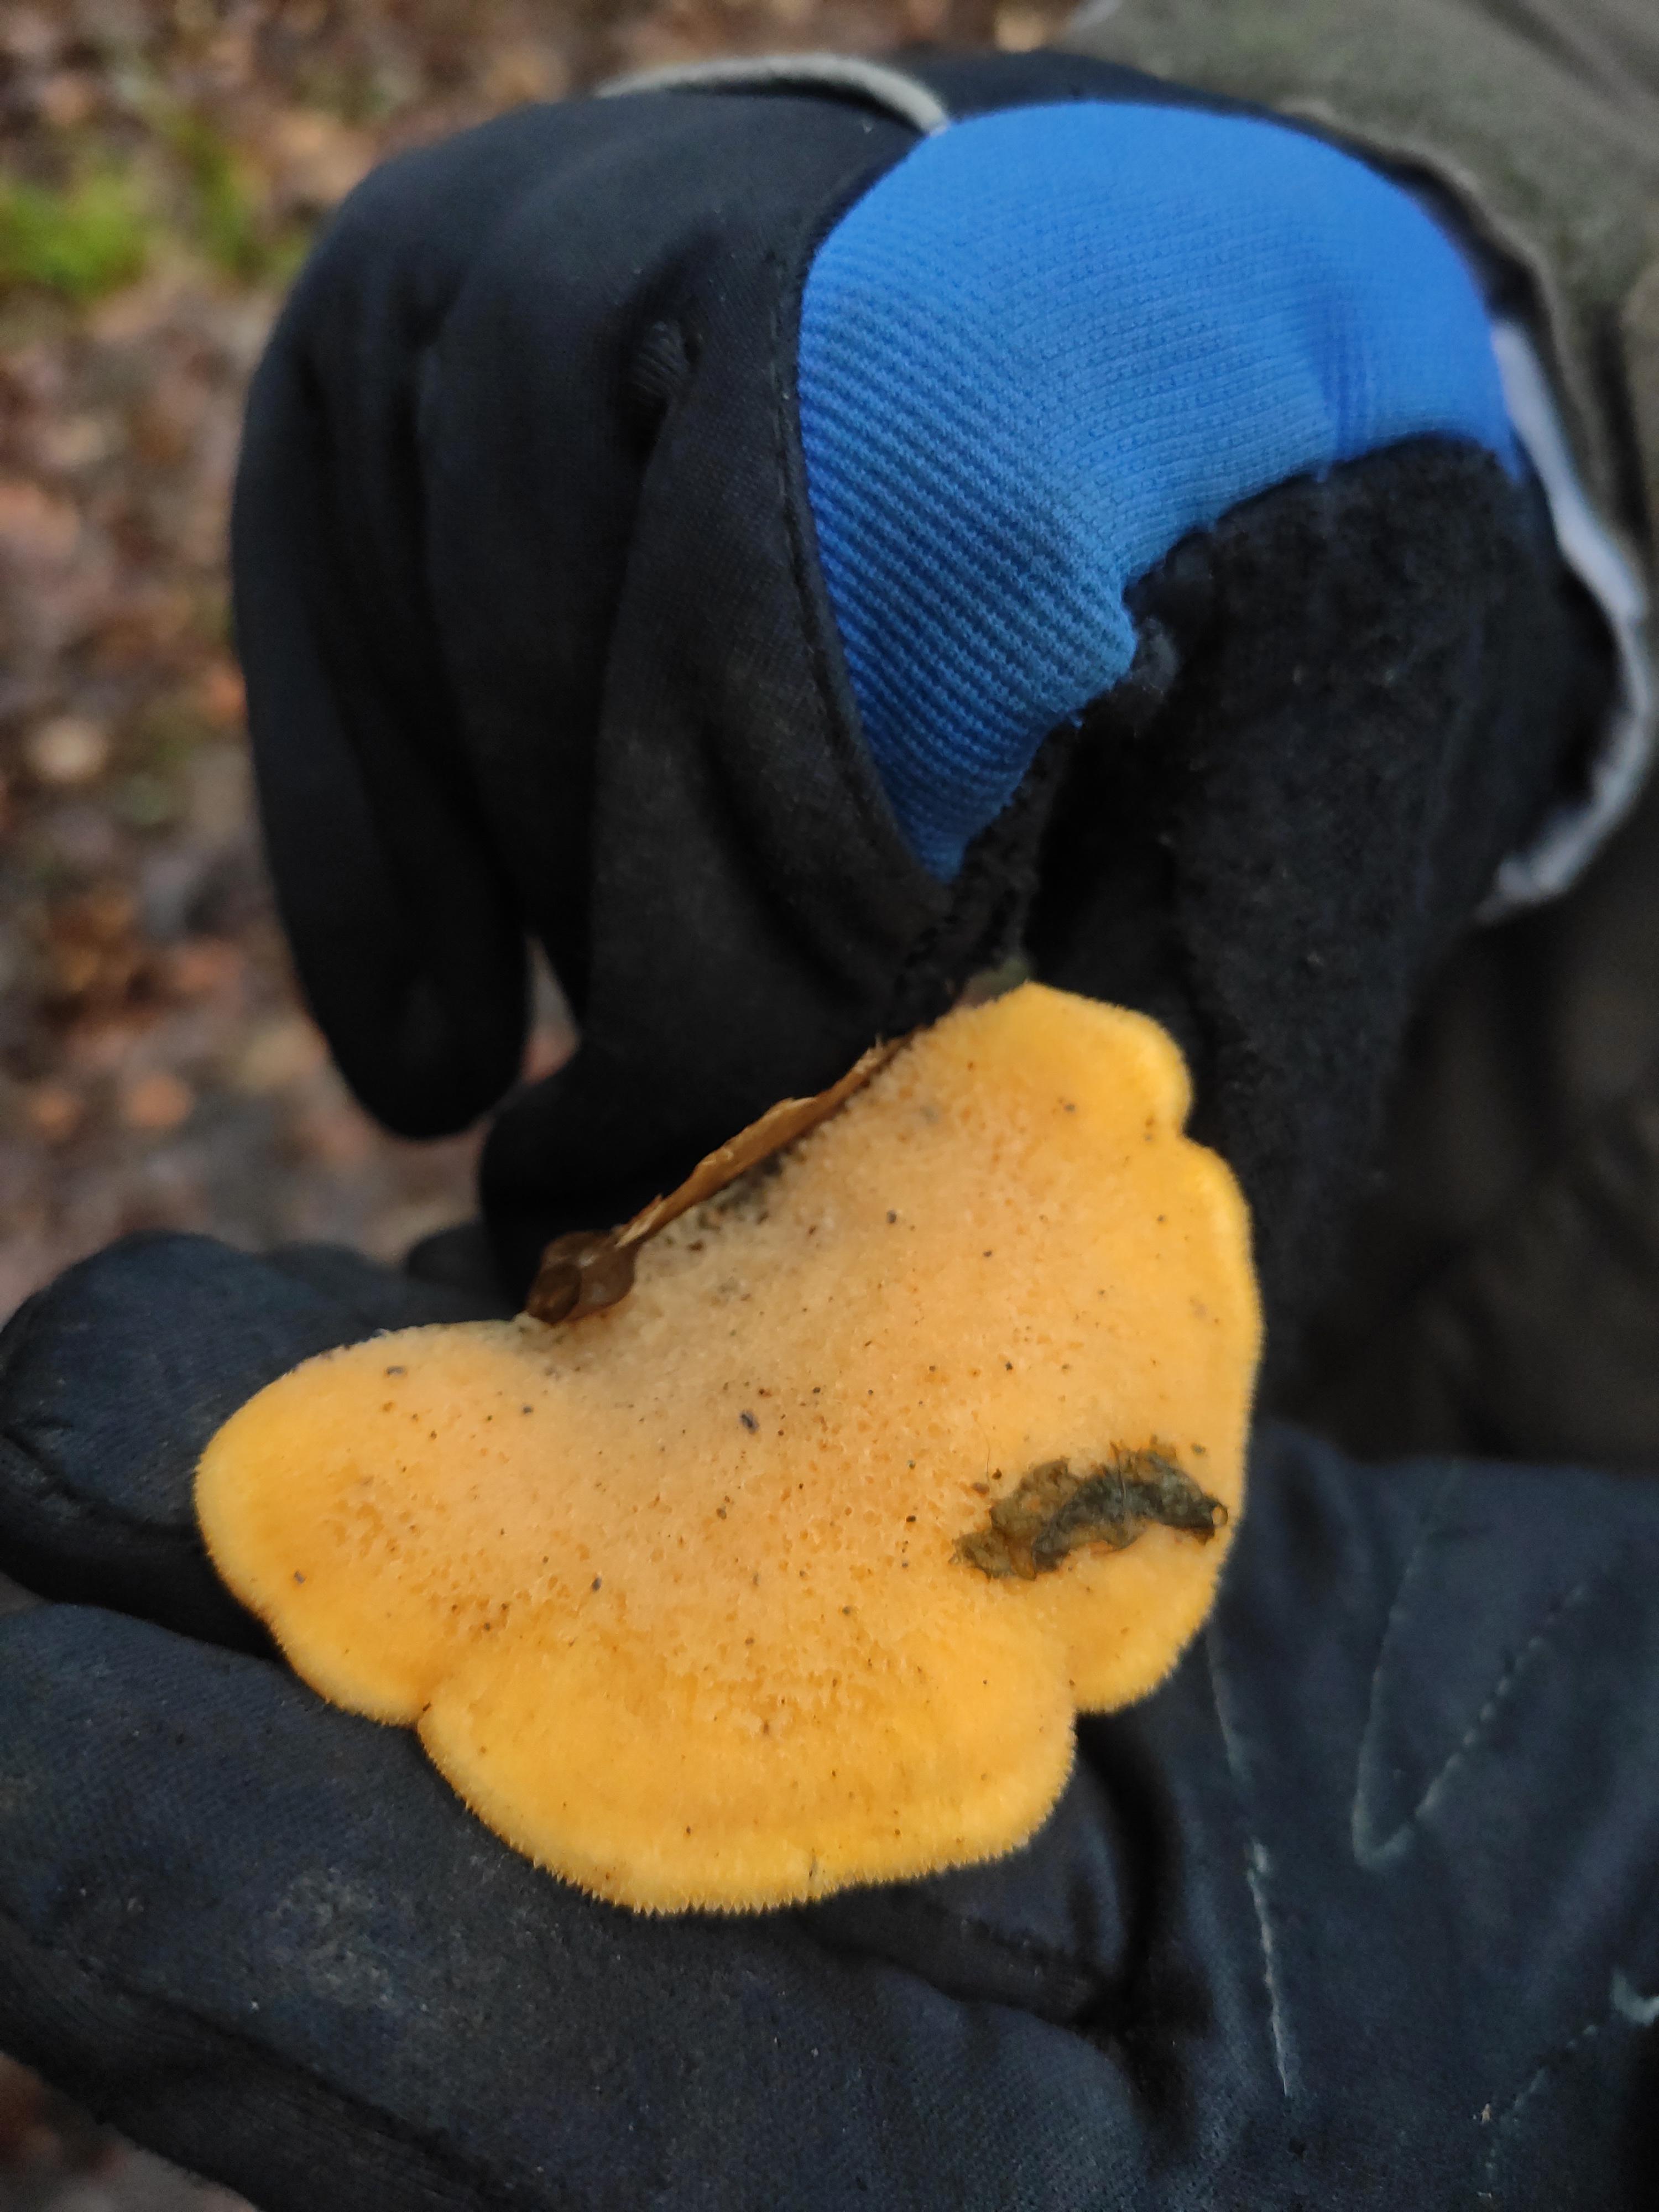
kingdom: Fungi
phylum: Basidiomycota
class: Agaricomycetes
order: Agaricales
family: Phyllotopsidaceae
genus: Phyllotopsis
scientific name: Phyllotopsis nidulans
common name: okkerblad
